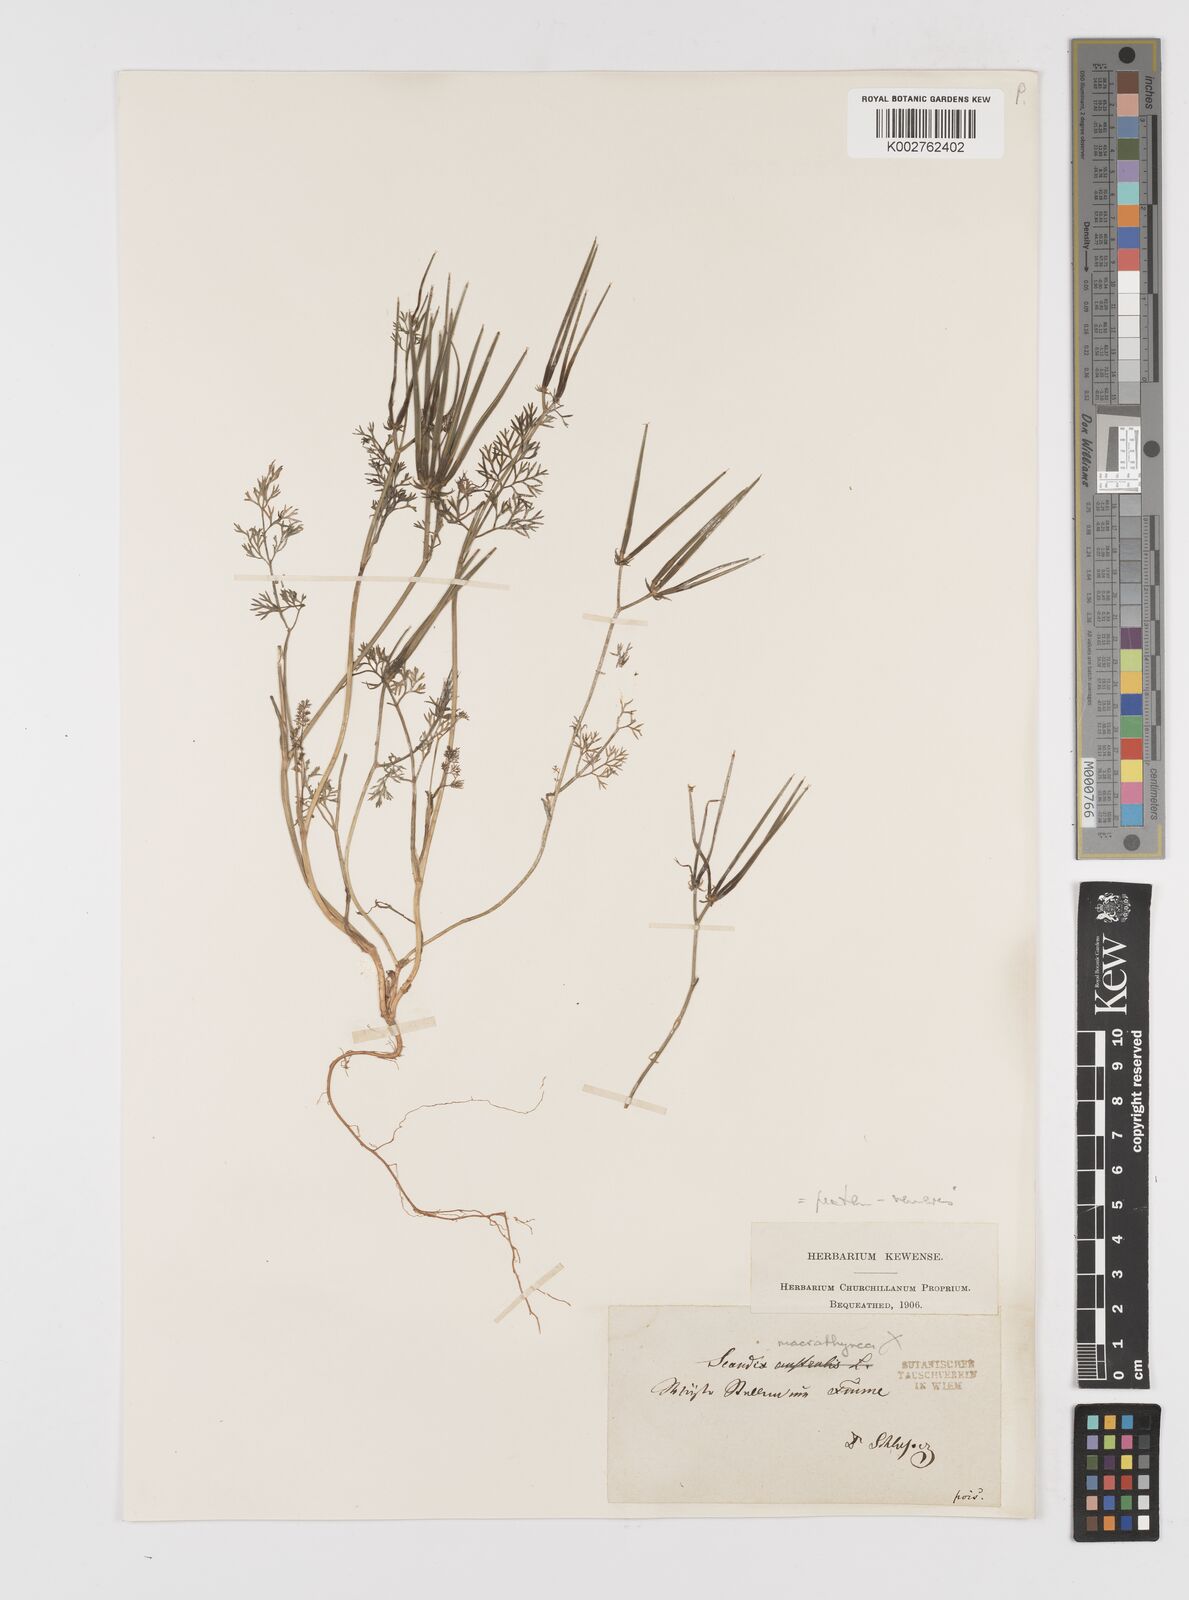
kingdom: Plantae
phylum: Tracheophyta
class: Magnoliopsida
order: Apiales
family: Apiaceae
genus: Scandix
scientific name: Scandix pecten-veneris
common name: Shepherd's-needle
